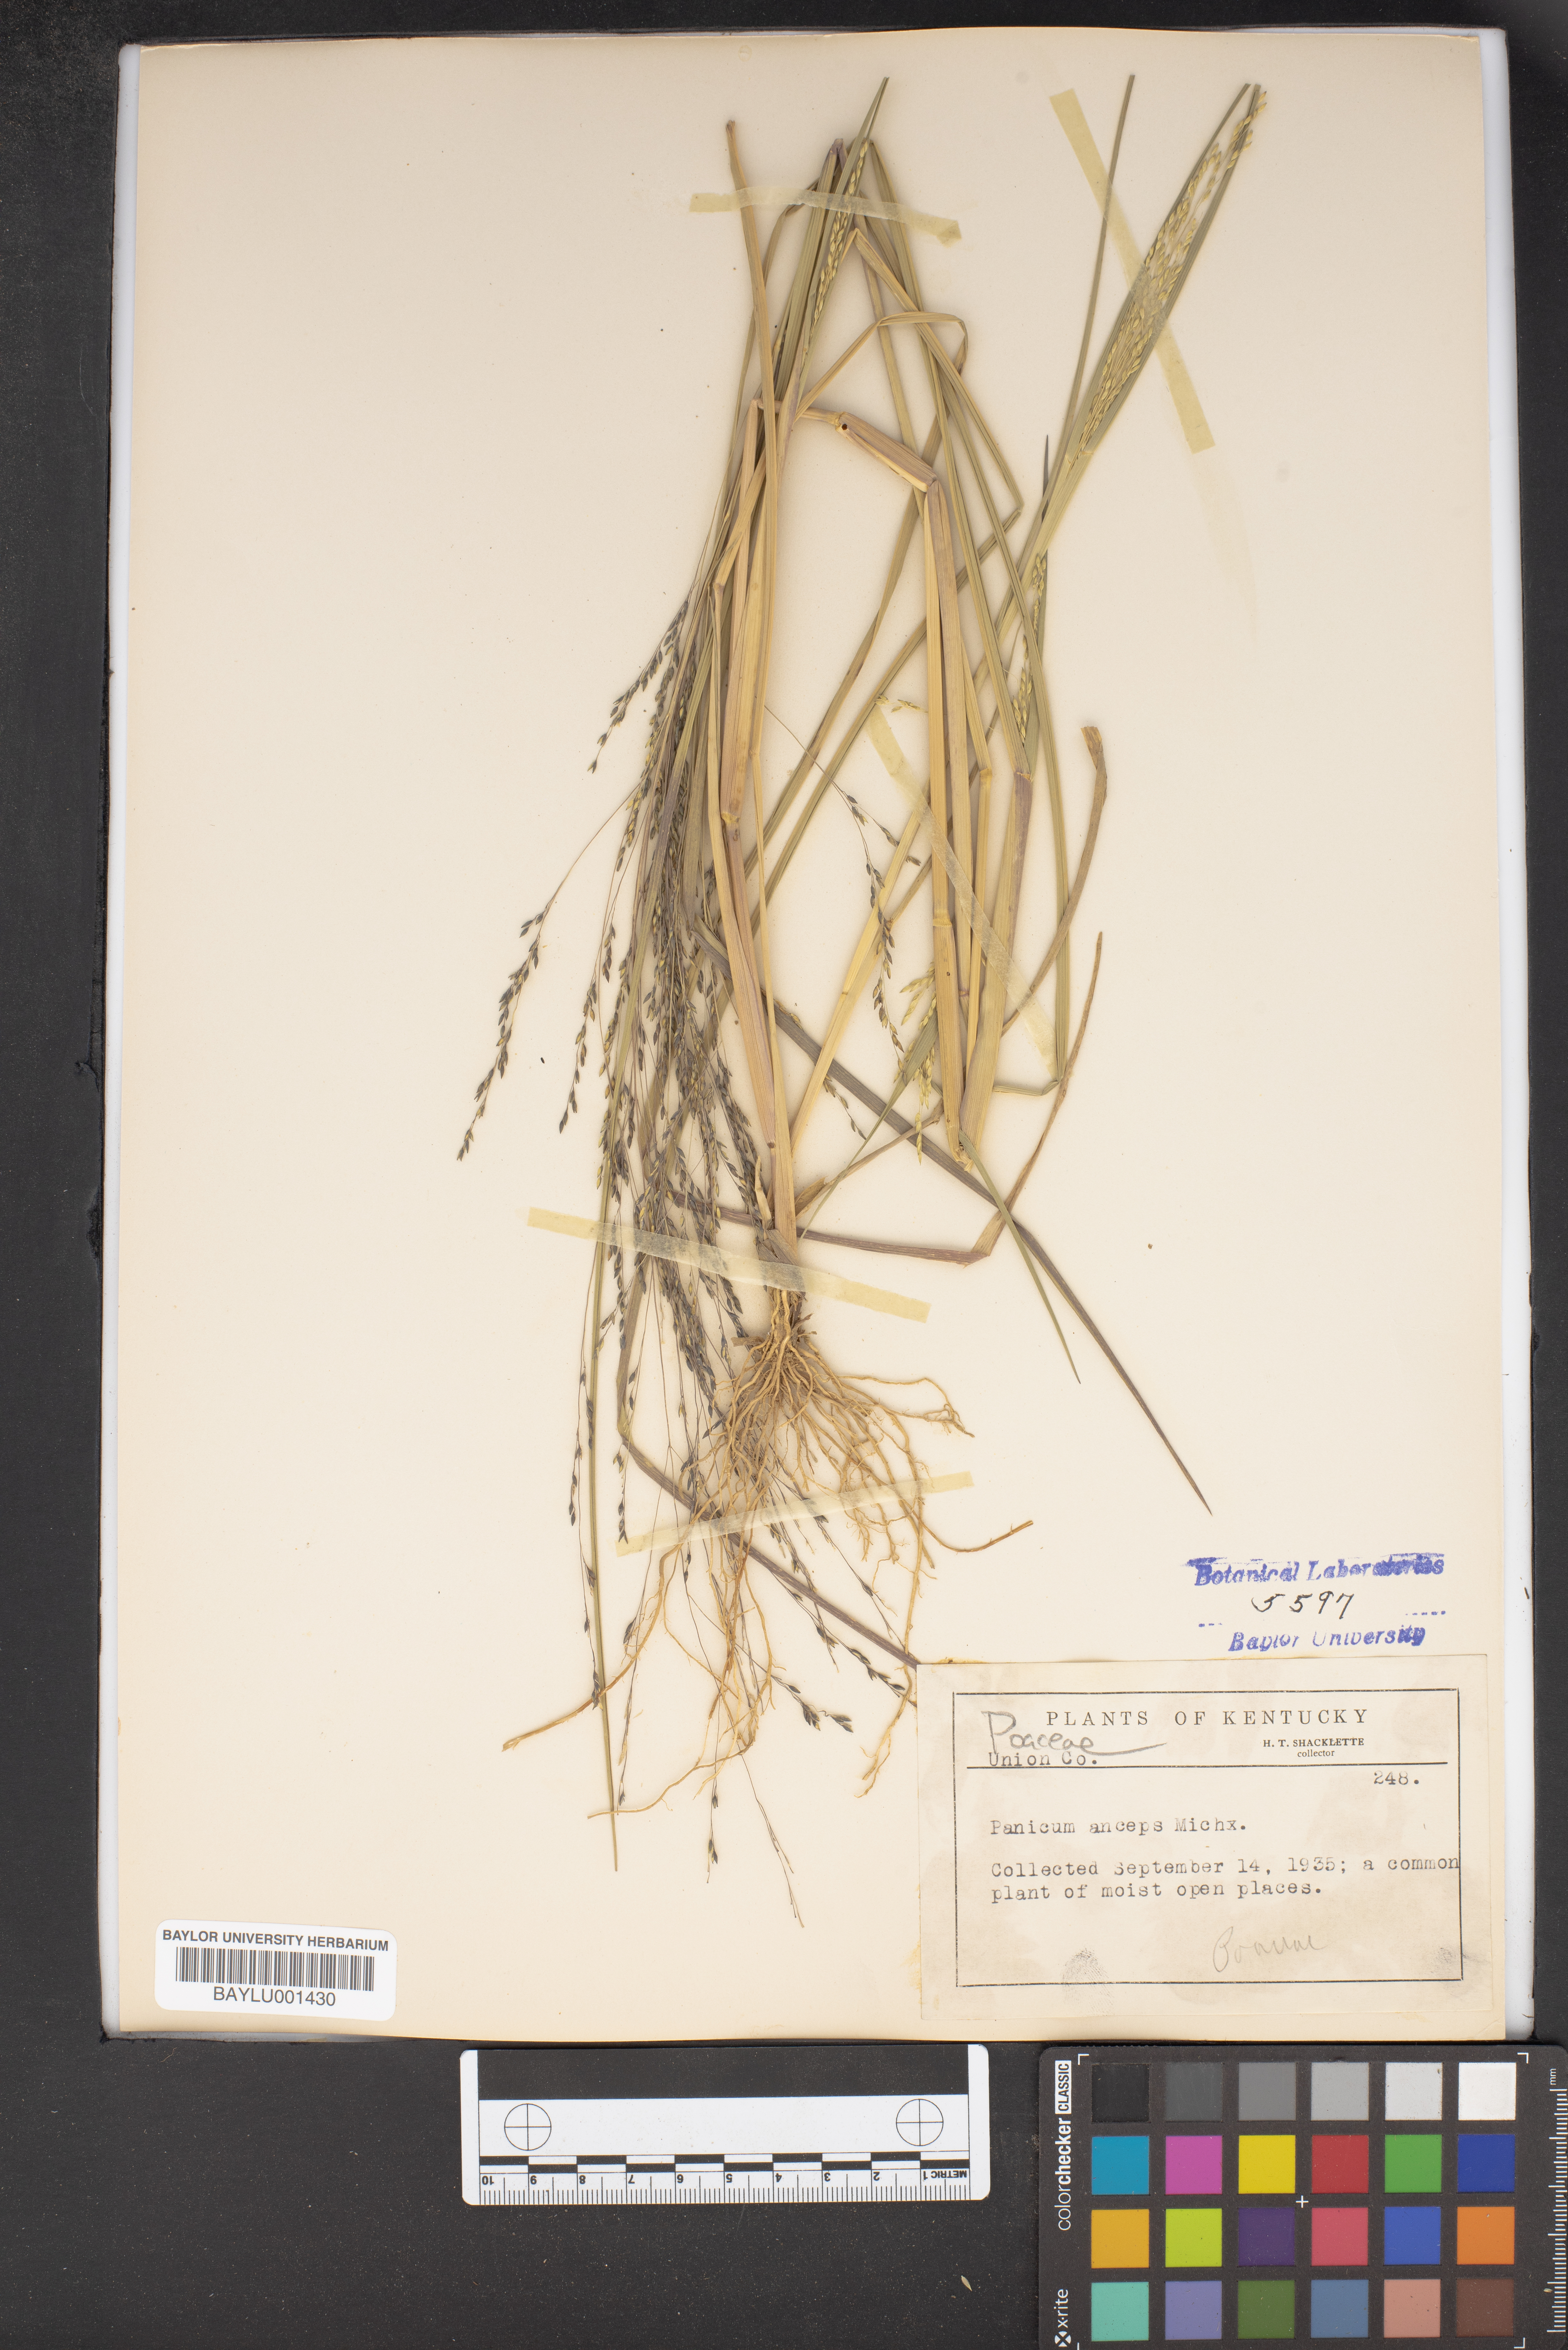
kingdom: Plantae
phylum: Tracheophyta
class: Liliopsida
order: Poales
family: Poaceae
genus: Coleataenia
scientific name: Coleataenia anceps
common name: Beaked panic grass
